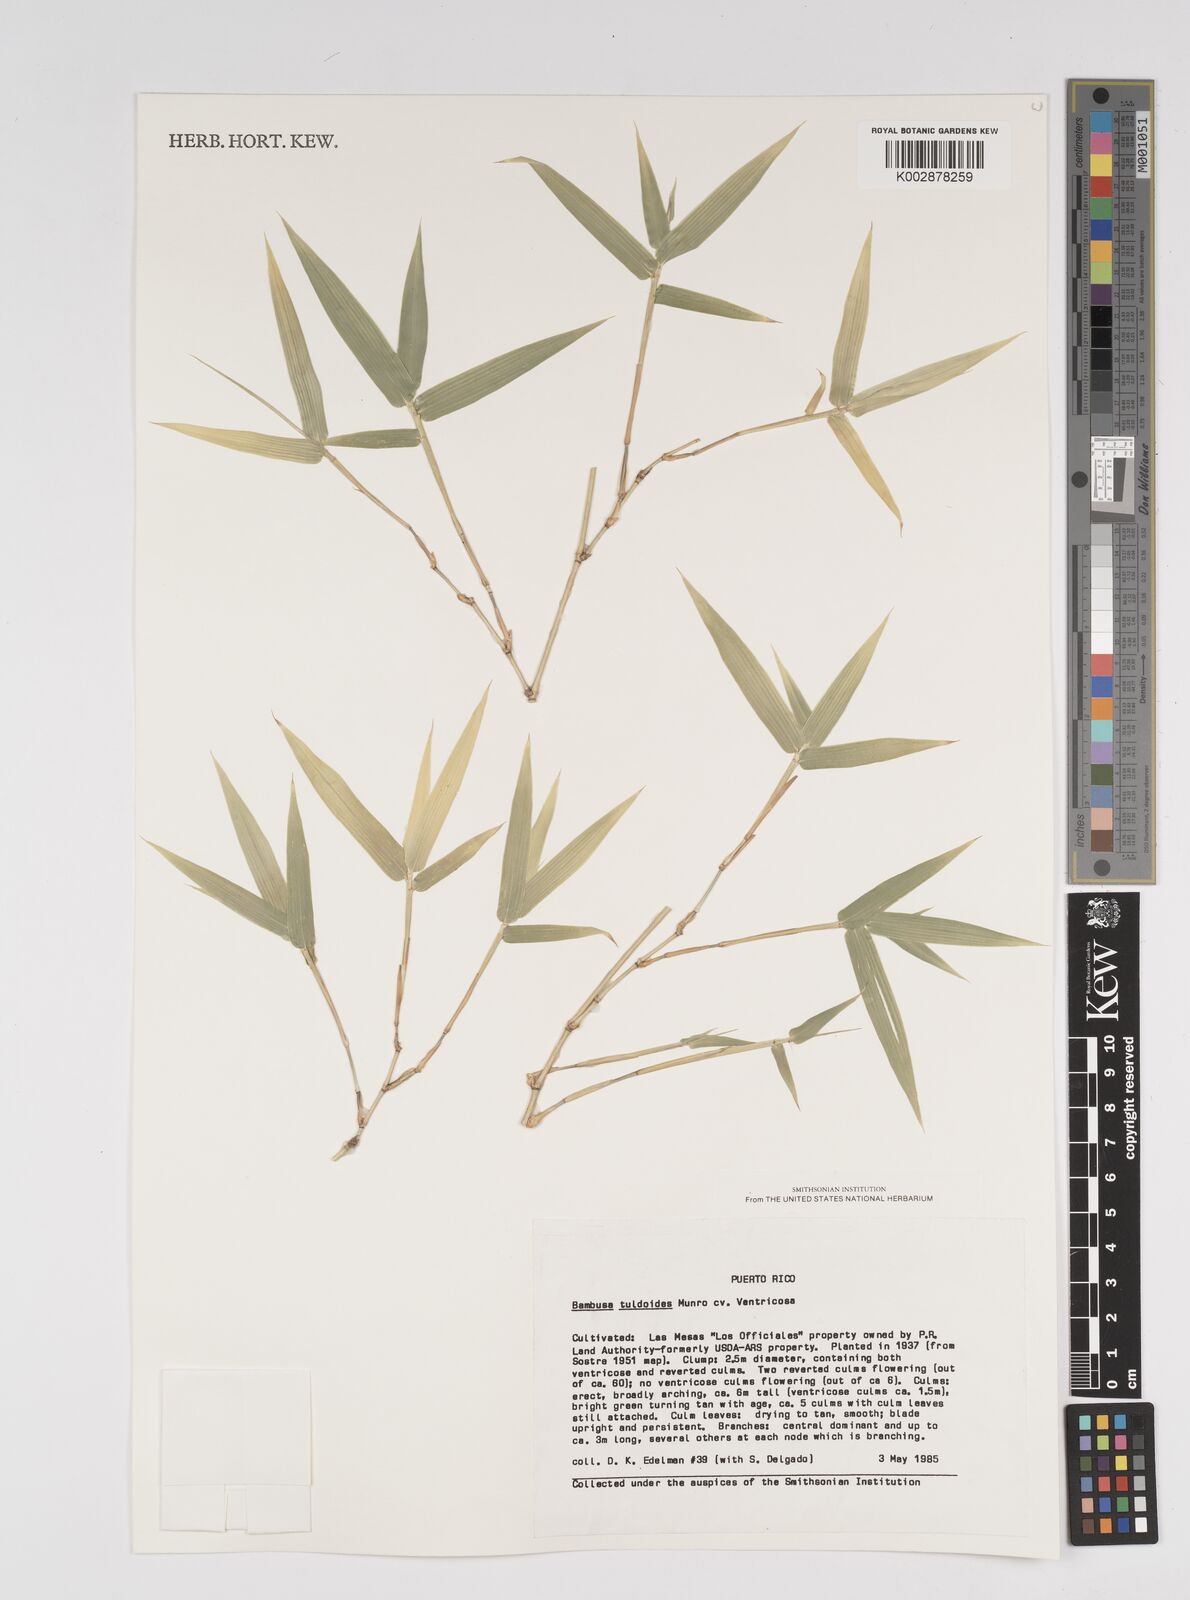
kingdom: Plantae
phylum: Tracheophyta
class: Liliopsida
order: Poales
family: Poaceae
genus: Bambusa
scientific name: Bambusa tuldoides
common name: Verdant bamboo
